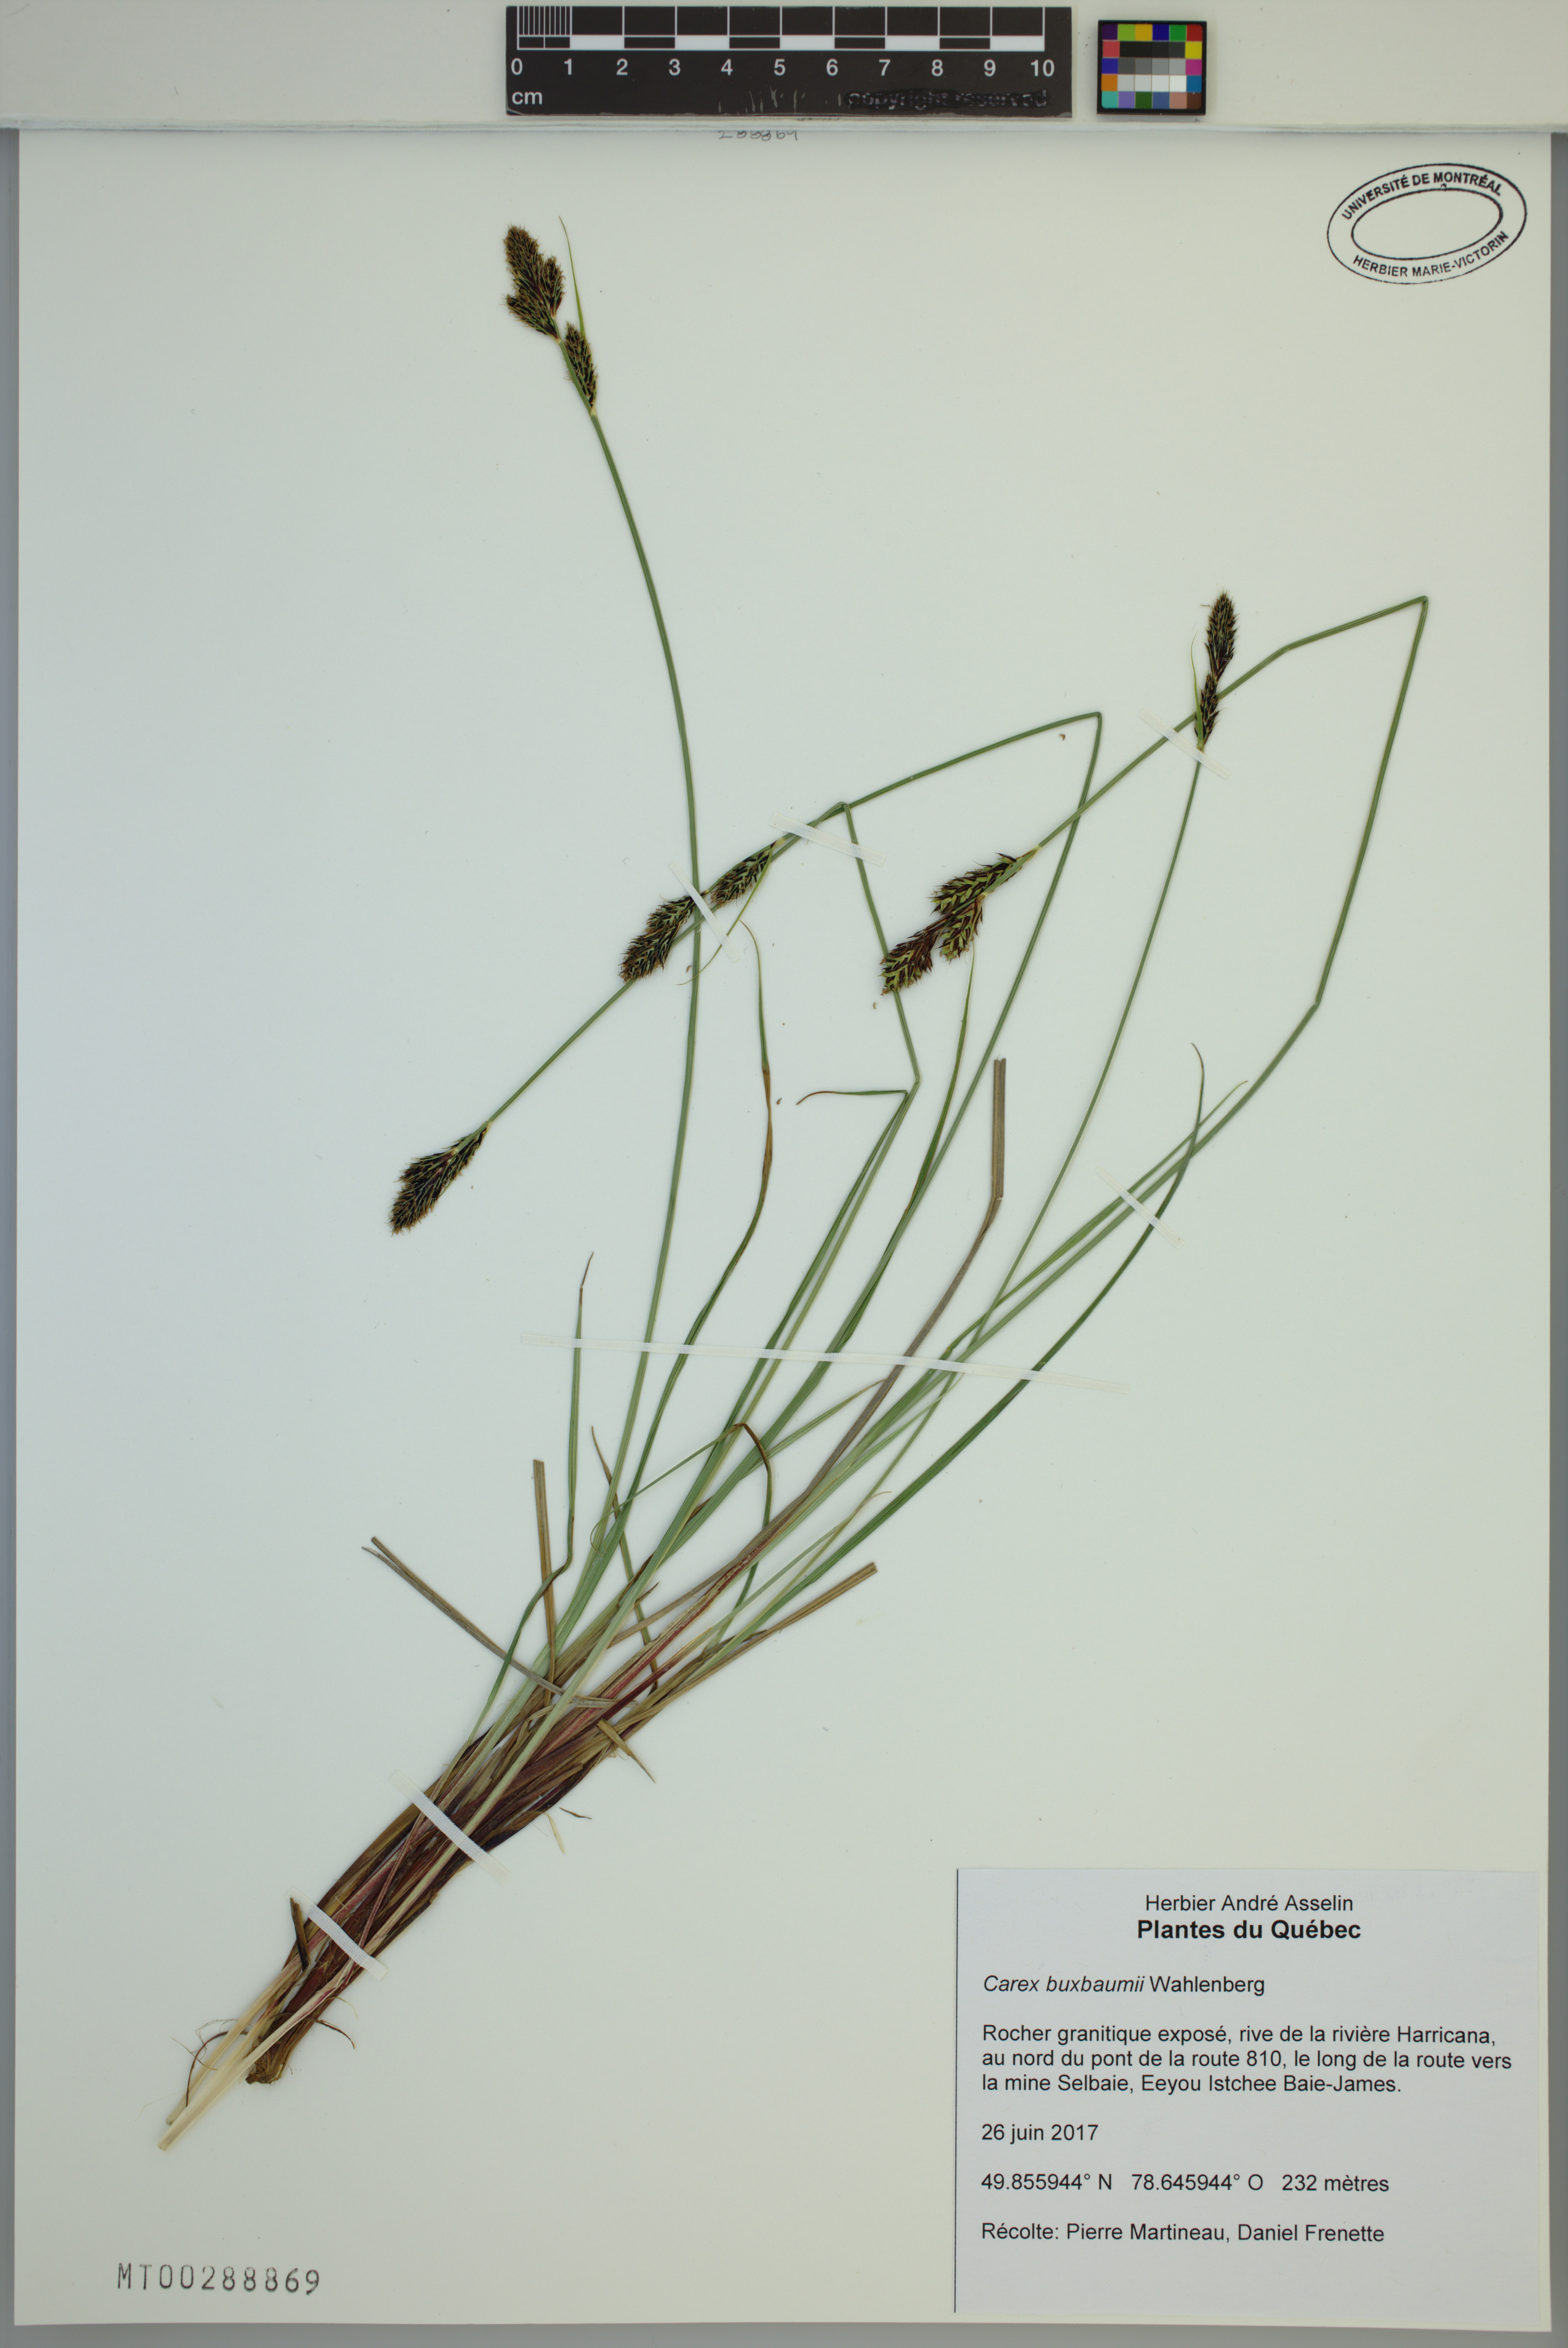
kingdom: Plantae
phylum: Tracheophyta
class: Liliopsida
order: Poales
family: Cyperaceae
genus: Carex
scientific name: Carex buxbaumii
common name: Club sedge
